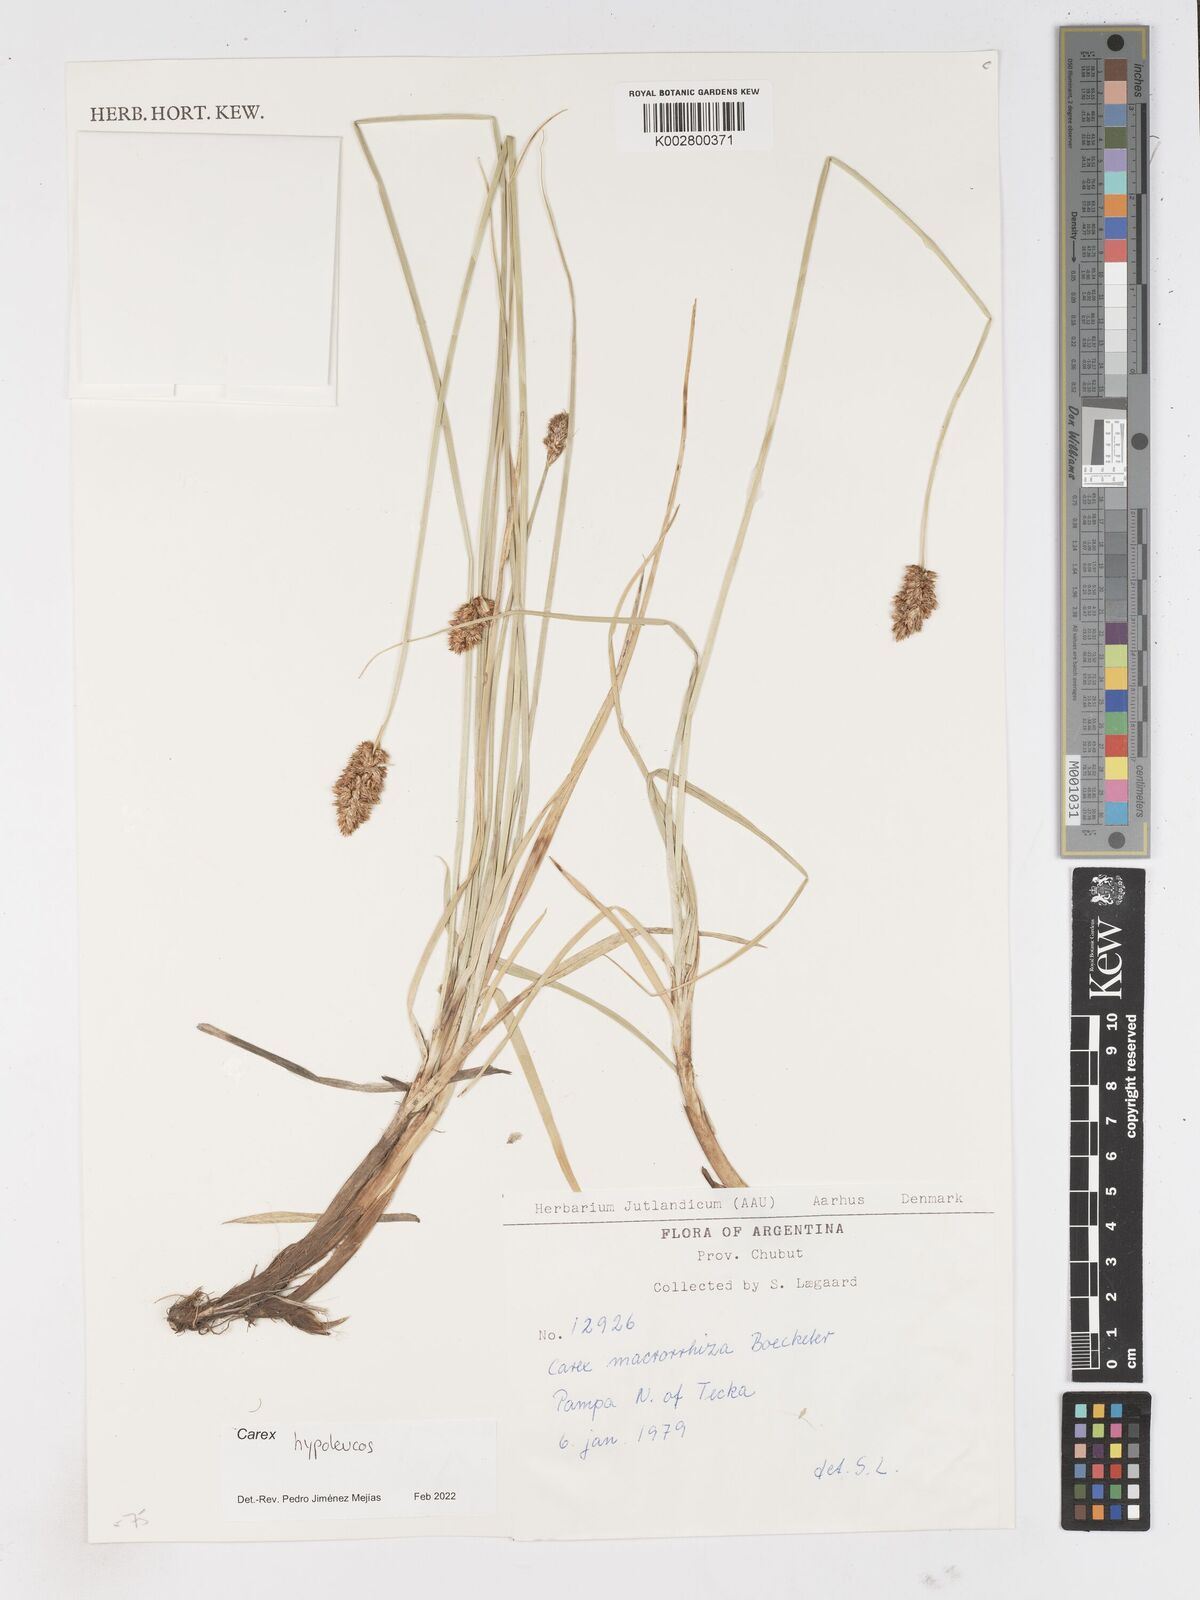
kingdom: Plantae
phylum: Tracheophyta
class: Liliopsida
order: Poales
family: Cyperaceae
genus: Carex
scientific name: Carex macrorrhiza
